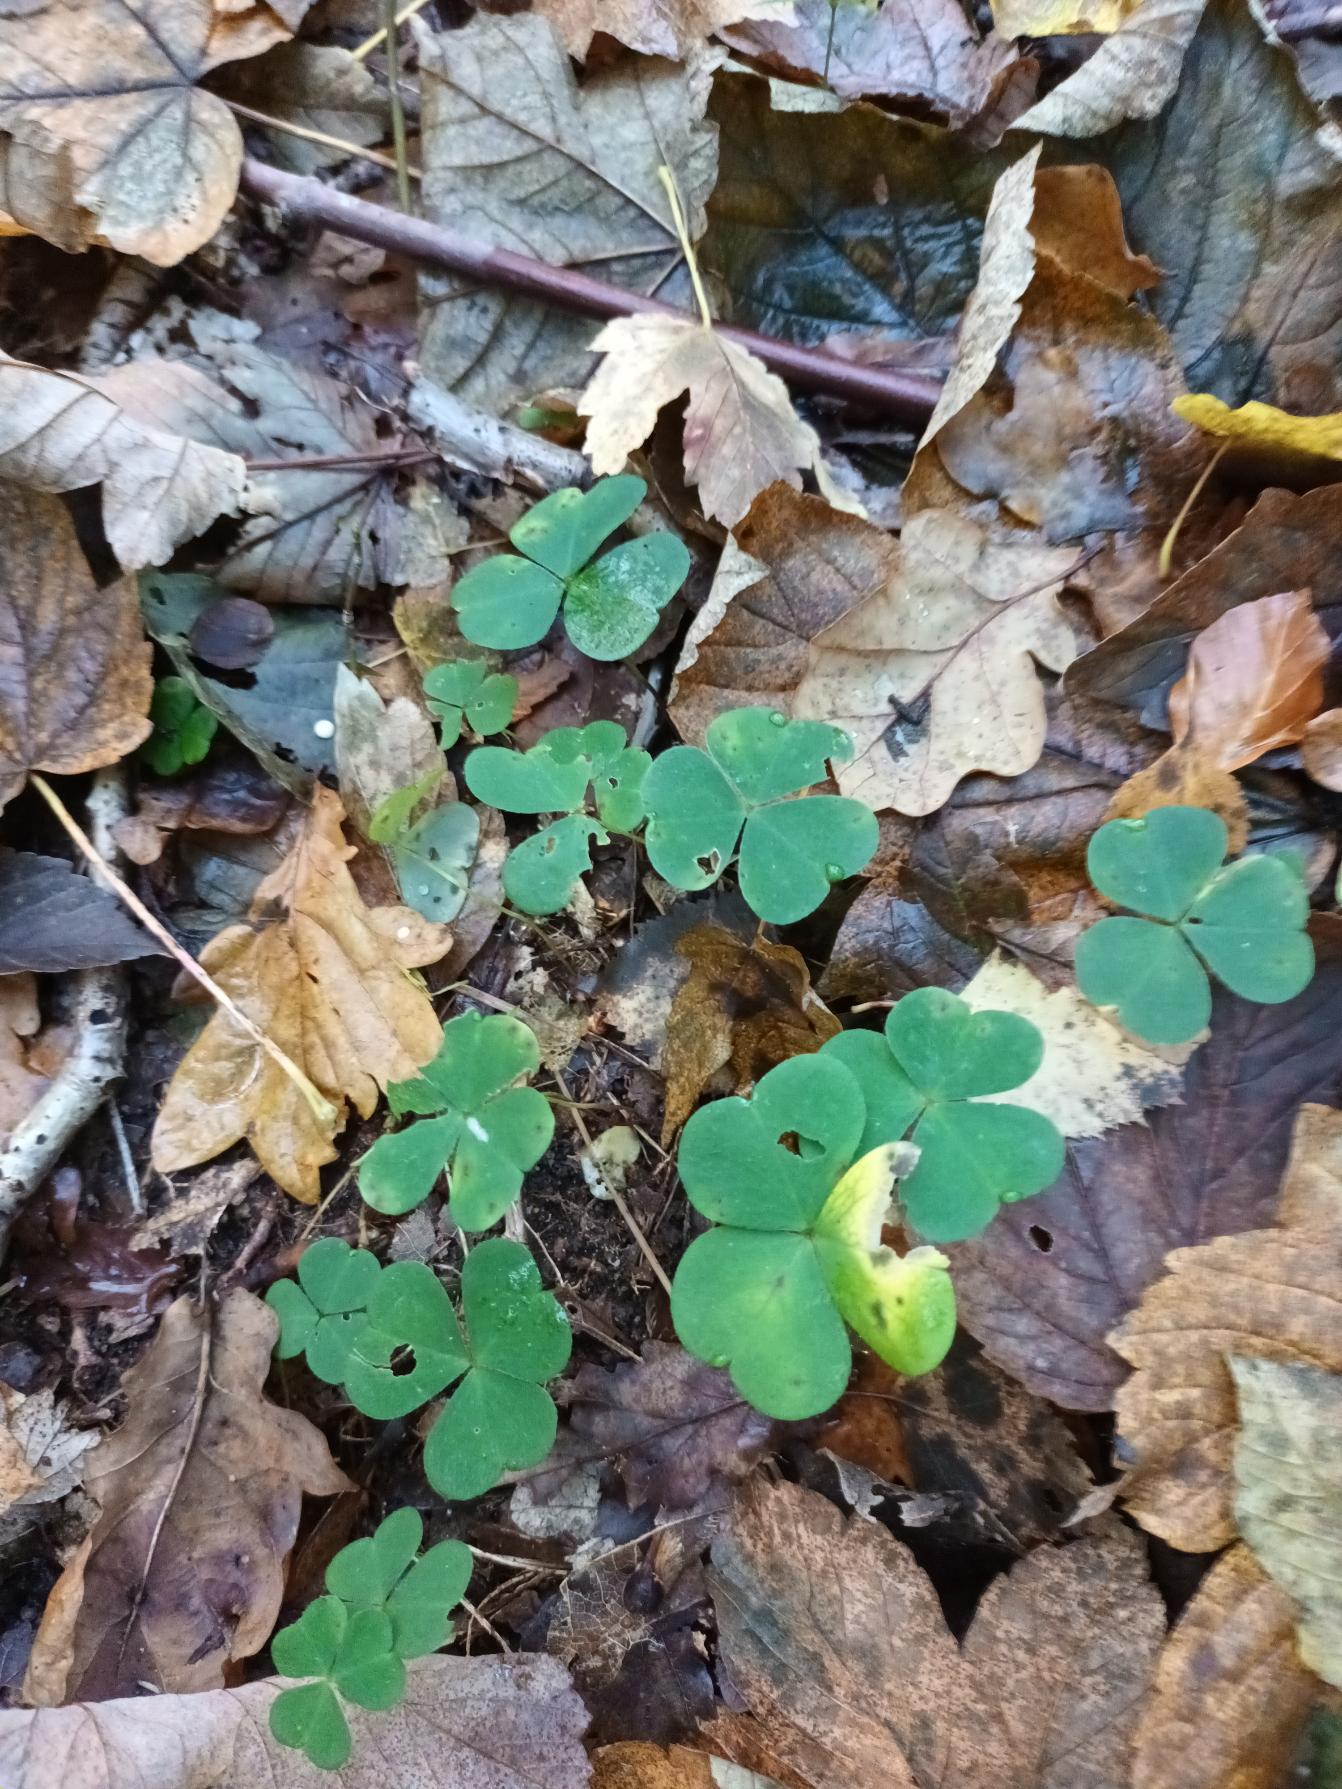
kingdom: Plantae
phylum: Tracheophyta
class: Magnoliopsida
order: Oxalidales
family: Oxalidaceae
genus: Oxalis
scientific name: Oxalis acetosella
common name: Skovsyre
